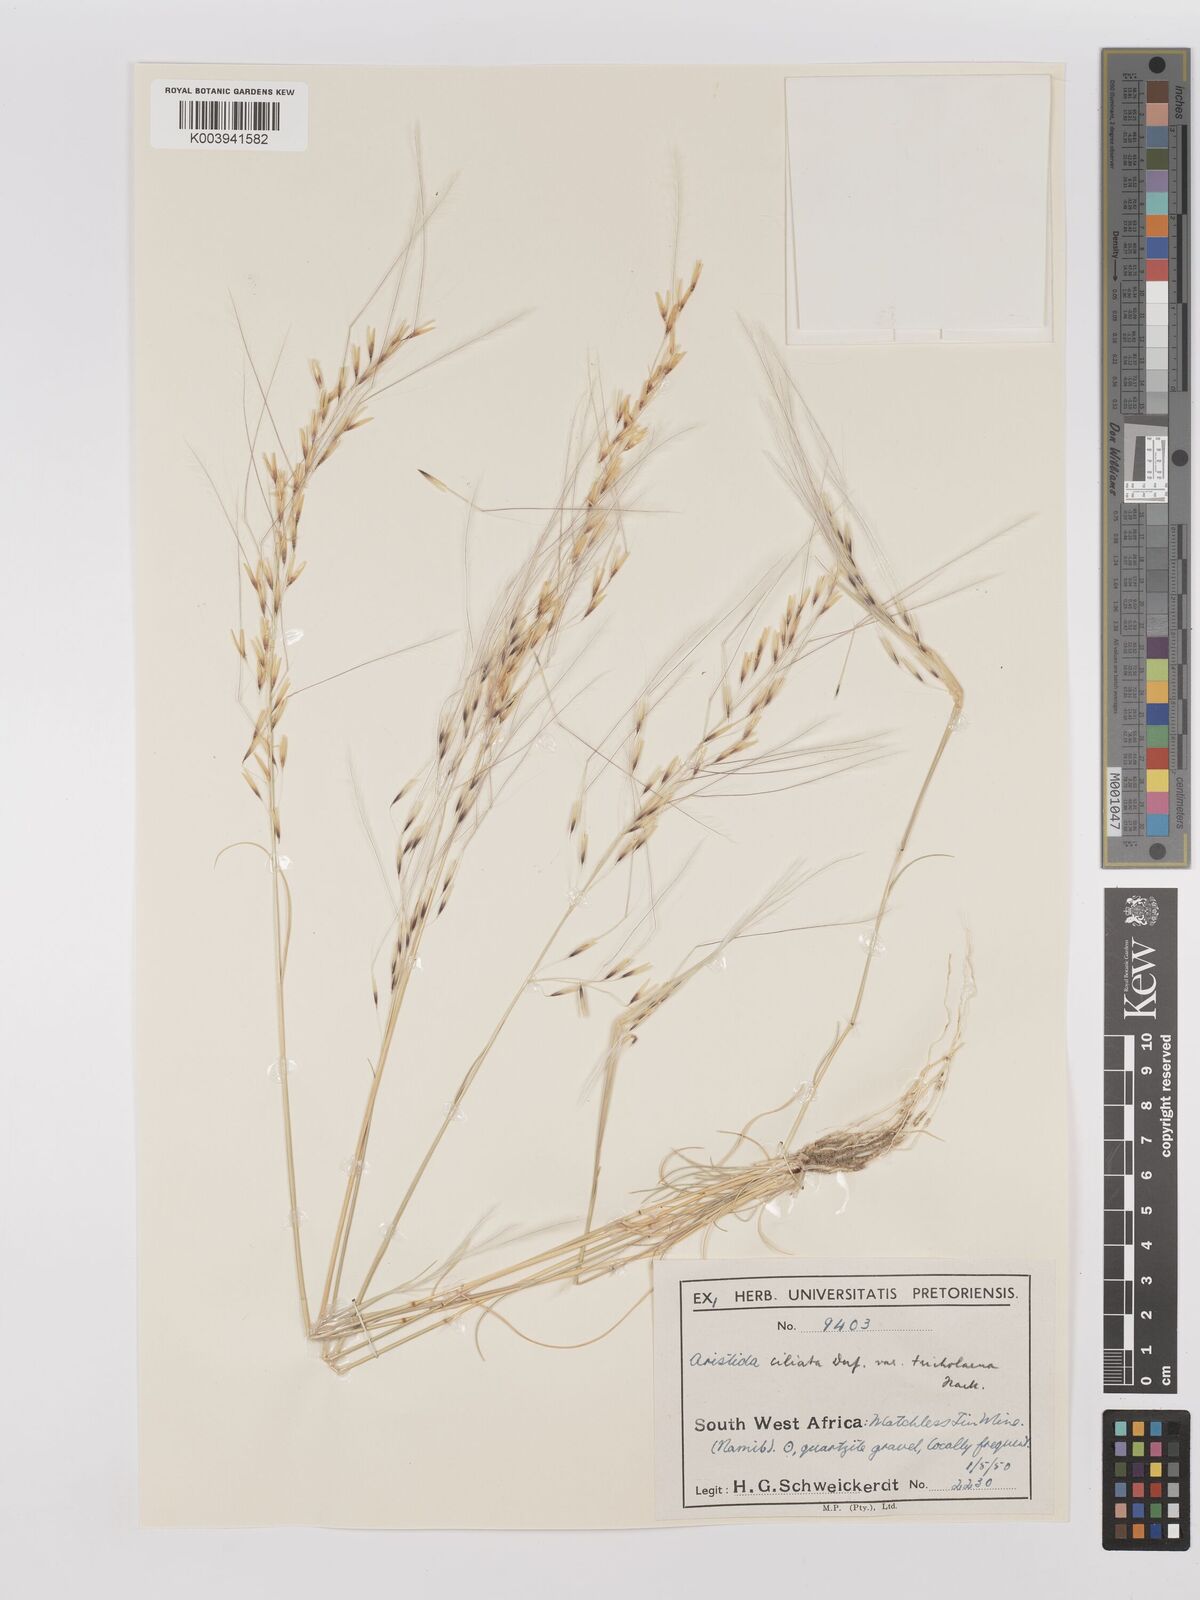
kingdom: Plantae
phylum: Tracheophyta
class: Liliopsida
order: Poales
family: Poaceae
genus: Stipagrostis
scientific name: Stipagrostis ciliata
